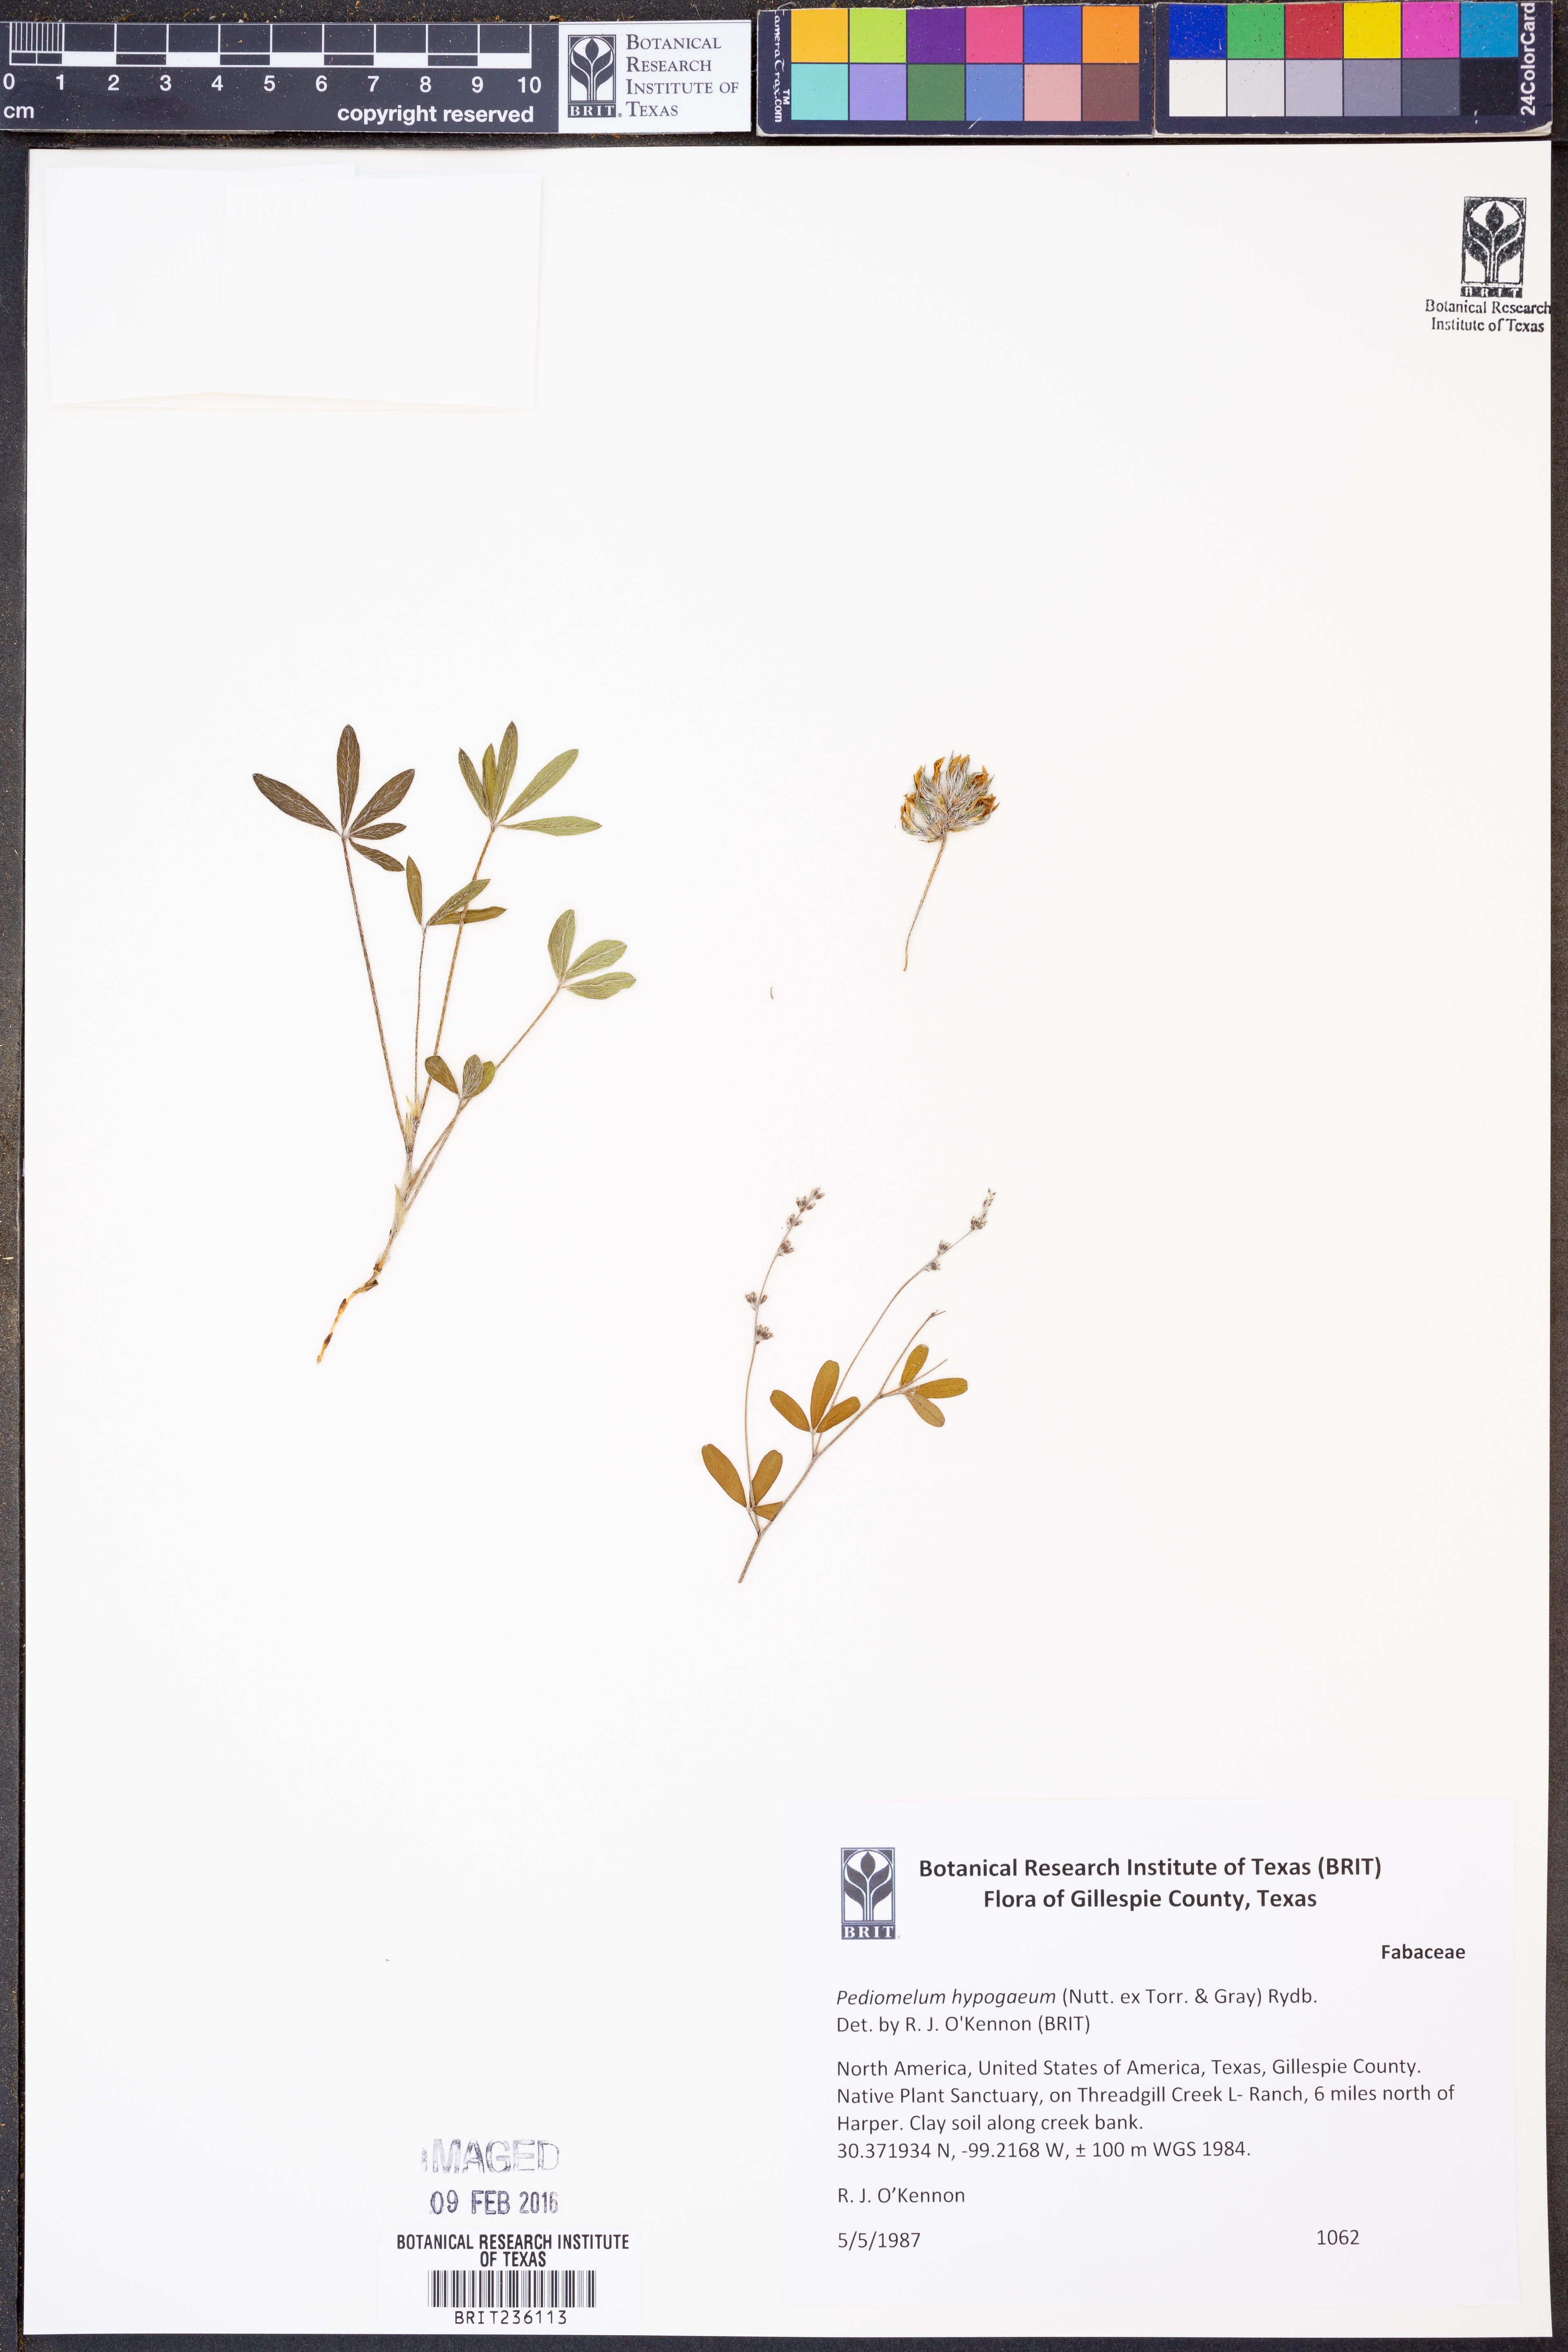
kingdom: Plantae
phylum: Tracheophyta
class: Magnoliopsida
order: Fabales
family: Fabaceae
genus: Pediomelum
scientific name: Pediomelum hypogaeum
